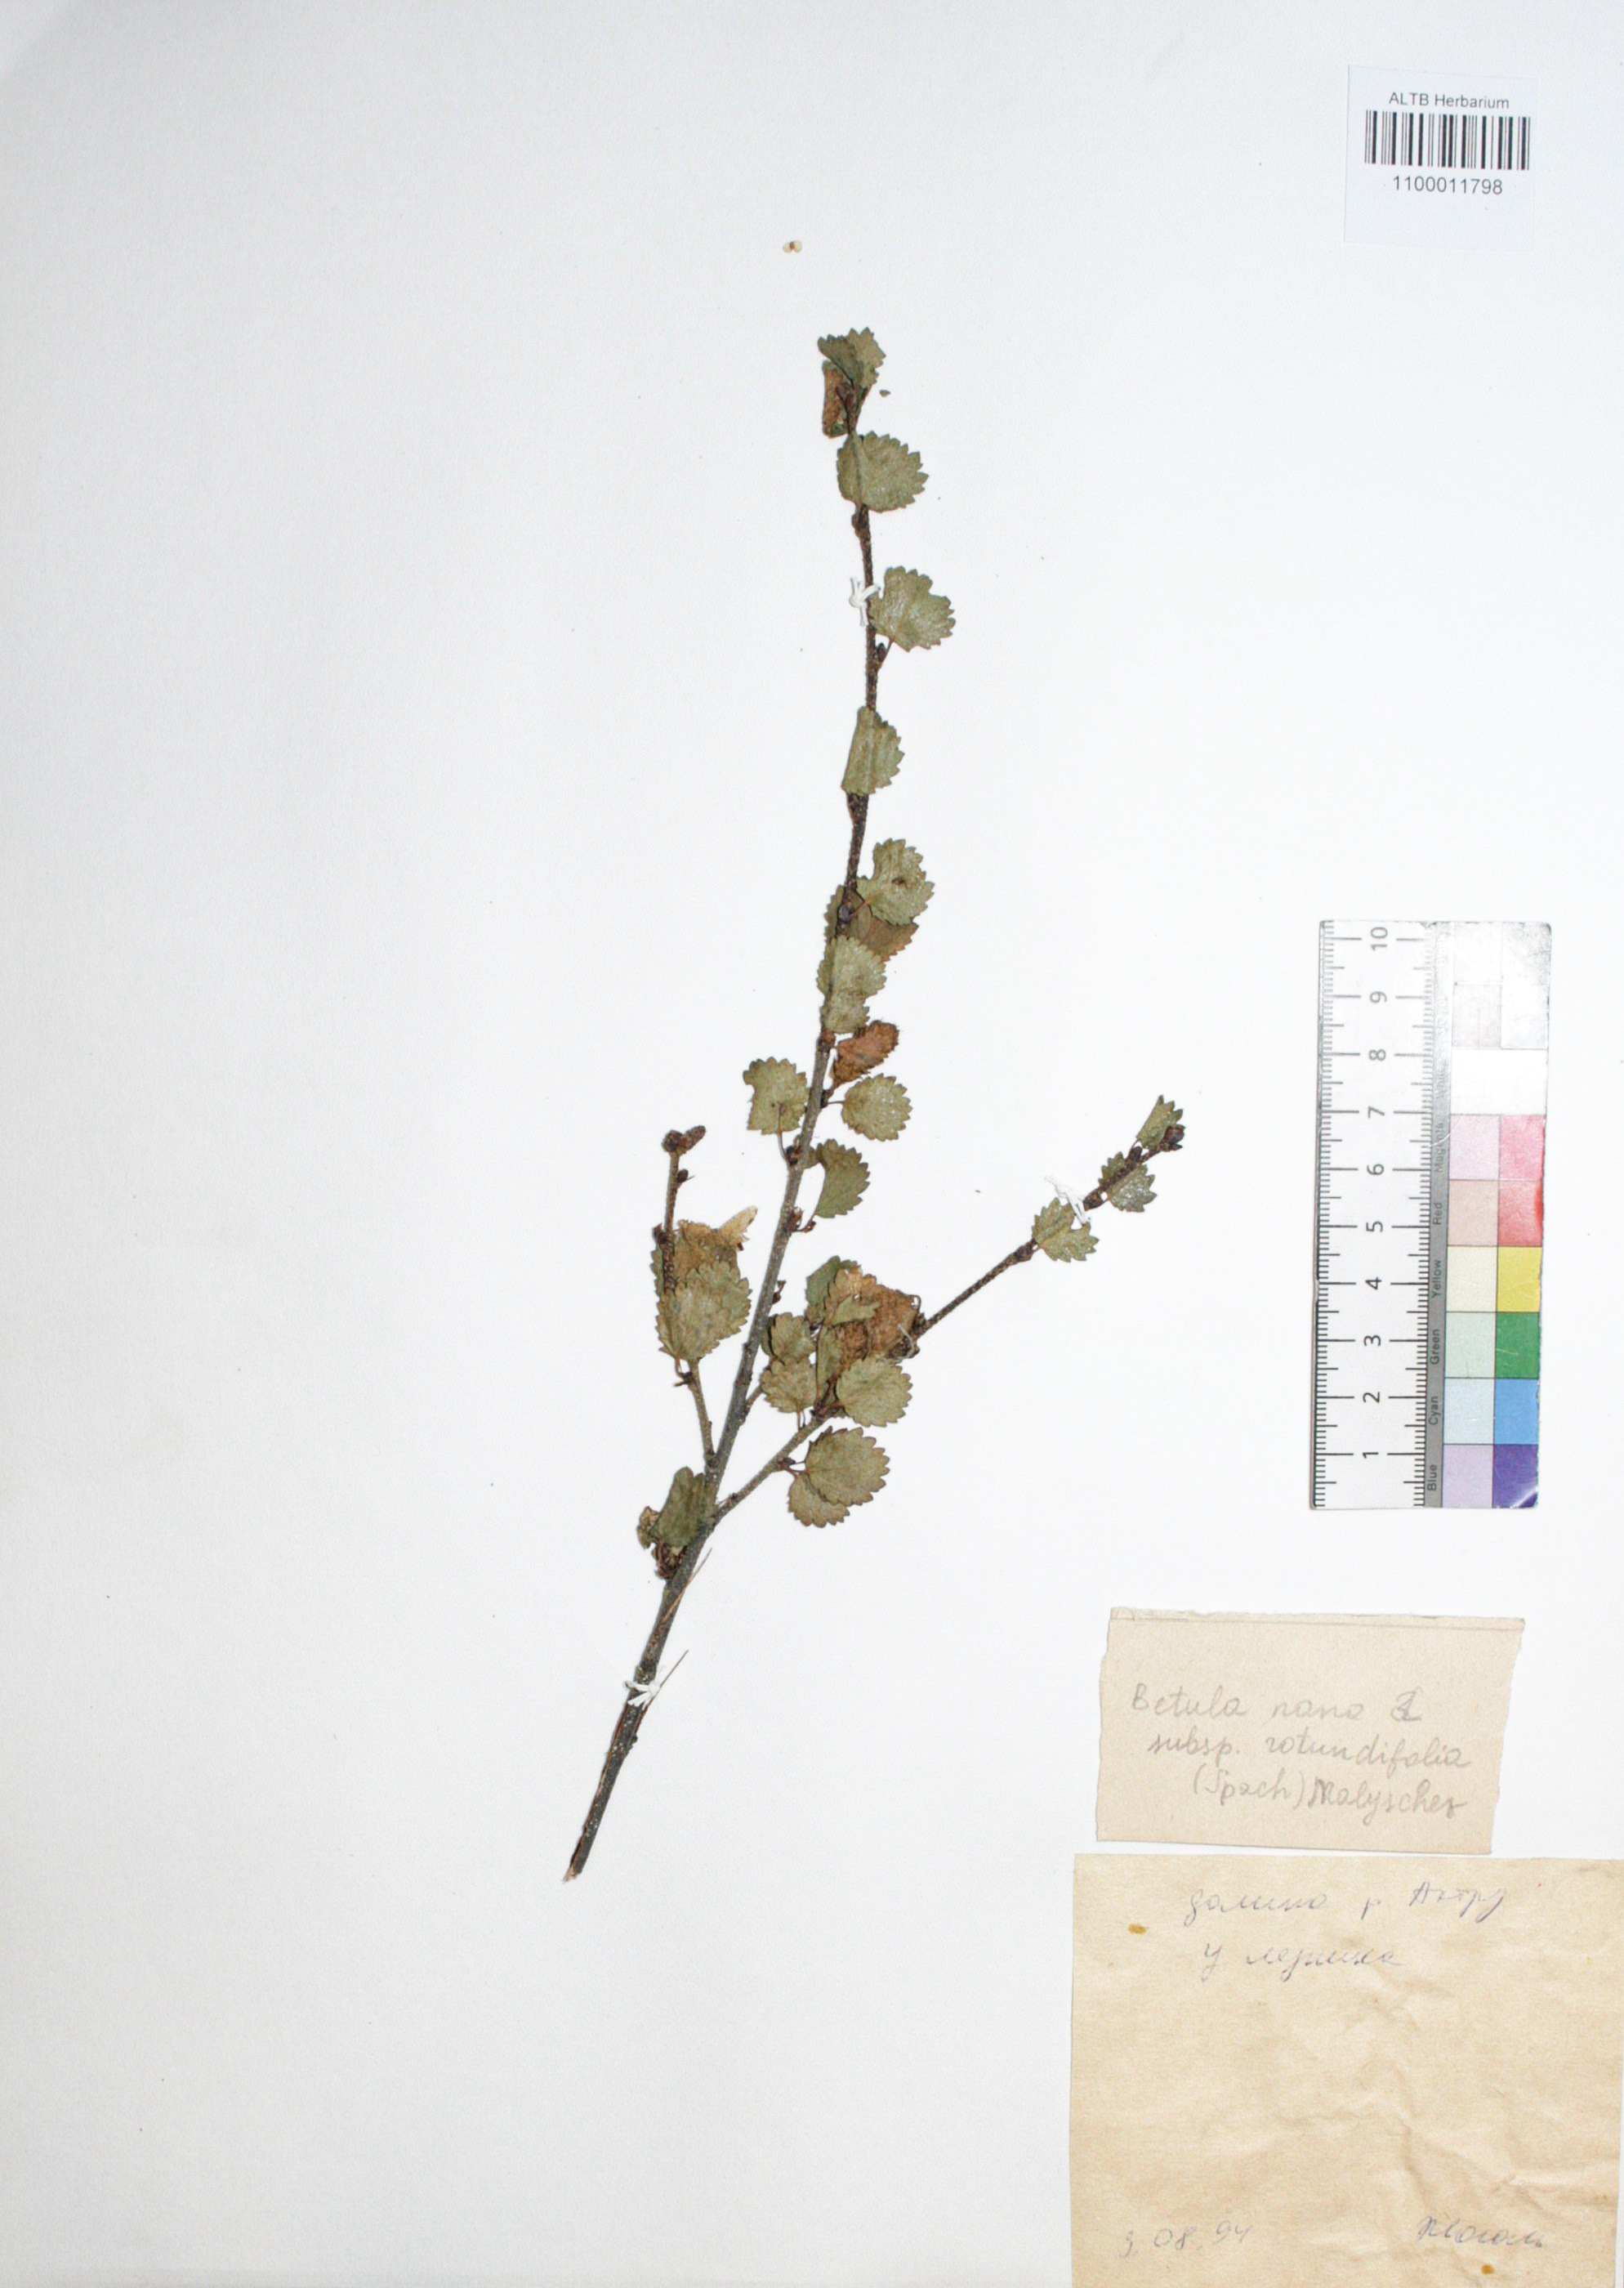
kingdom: Plantae
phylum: Tracheophyta
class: Magnoliopsida
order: Fagales
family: Betulaceae
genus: Betula
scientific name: Betula glandulosa
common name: Dwarf birch
